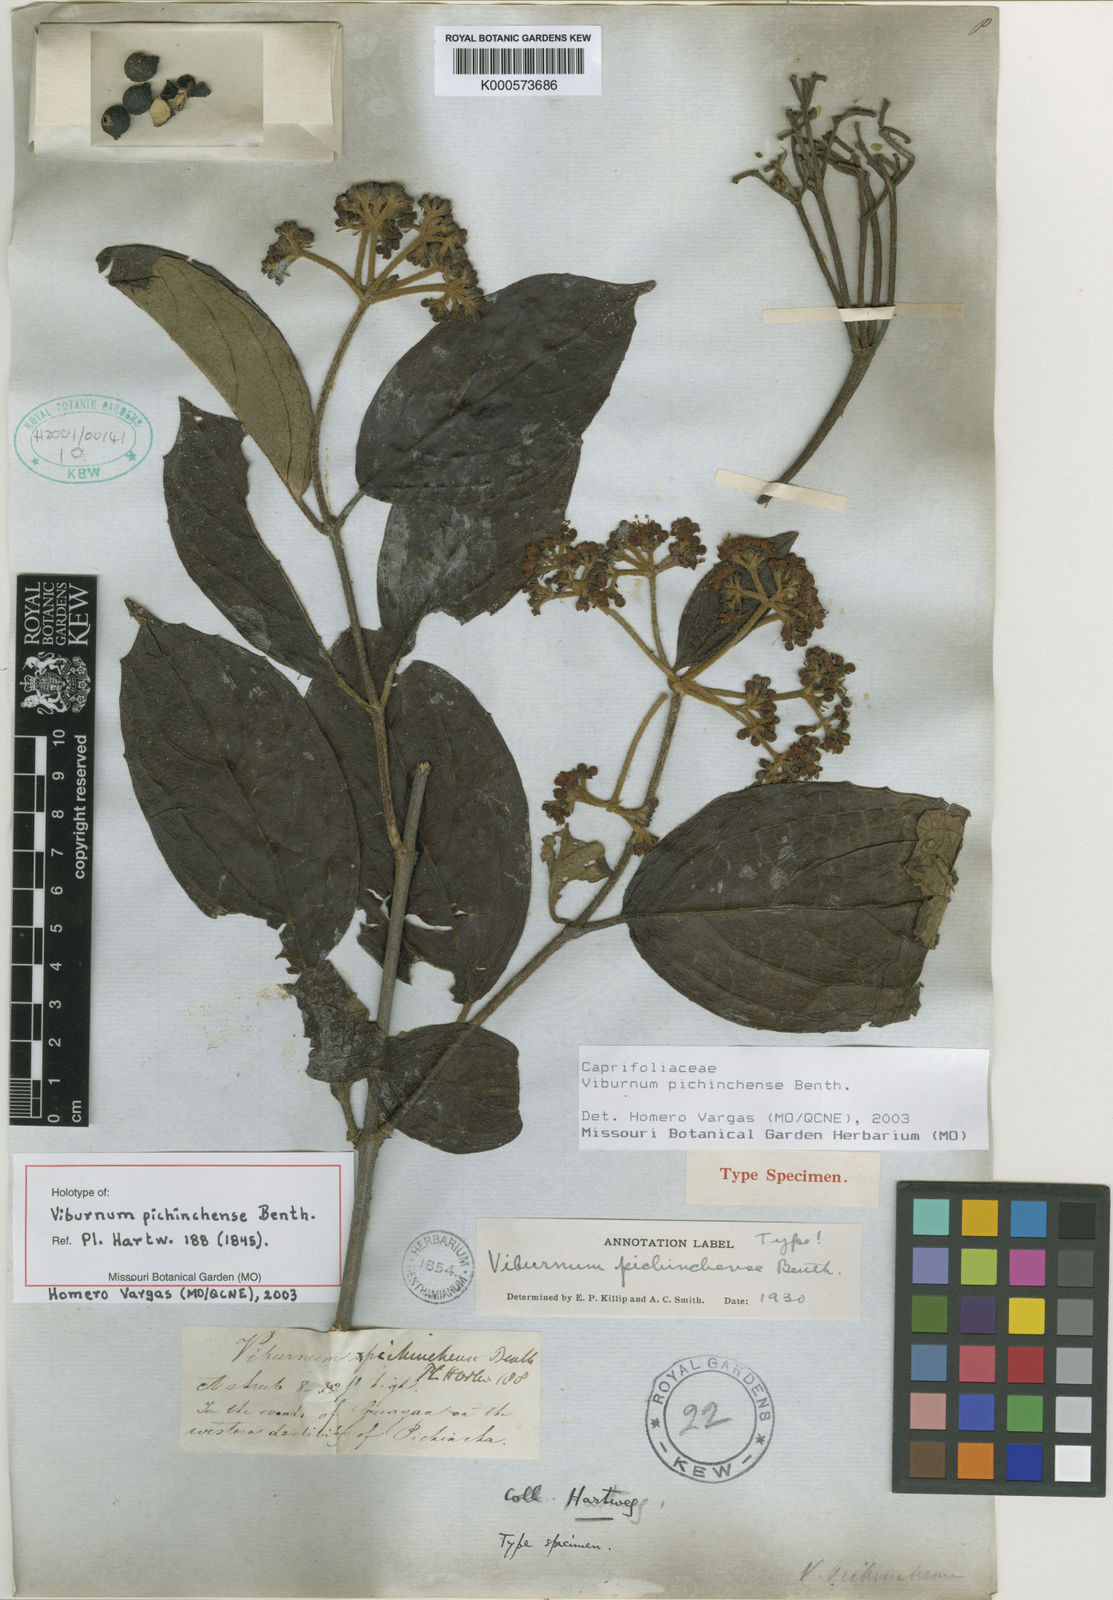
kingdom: Plantae
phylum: Tracheophyta
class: Magnoliopsida
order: Dipsacales
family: Viburnaceae
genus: Viburnum
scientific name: Viburnum pichinchense
